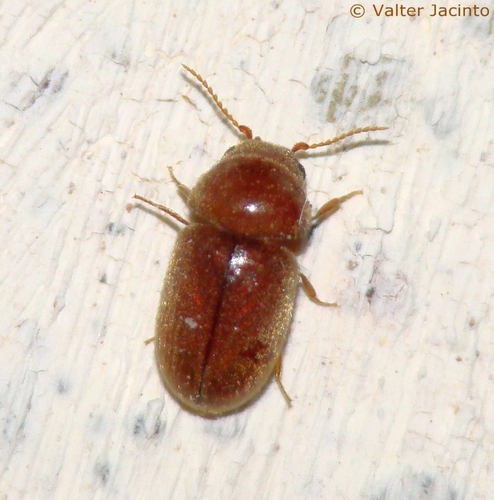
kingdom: Animalia
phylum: Arthropoda
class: Insecta
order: Coleoptera
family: Anobiidae
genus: Lasioderma
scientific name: Lasioderma serricorne
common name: Cigarette beetle
